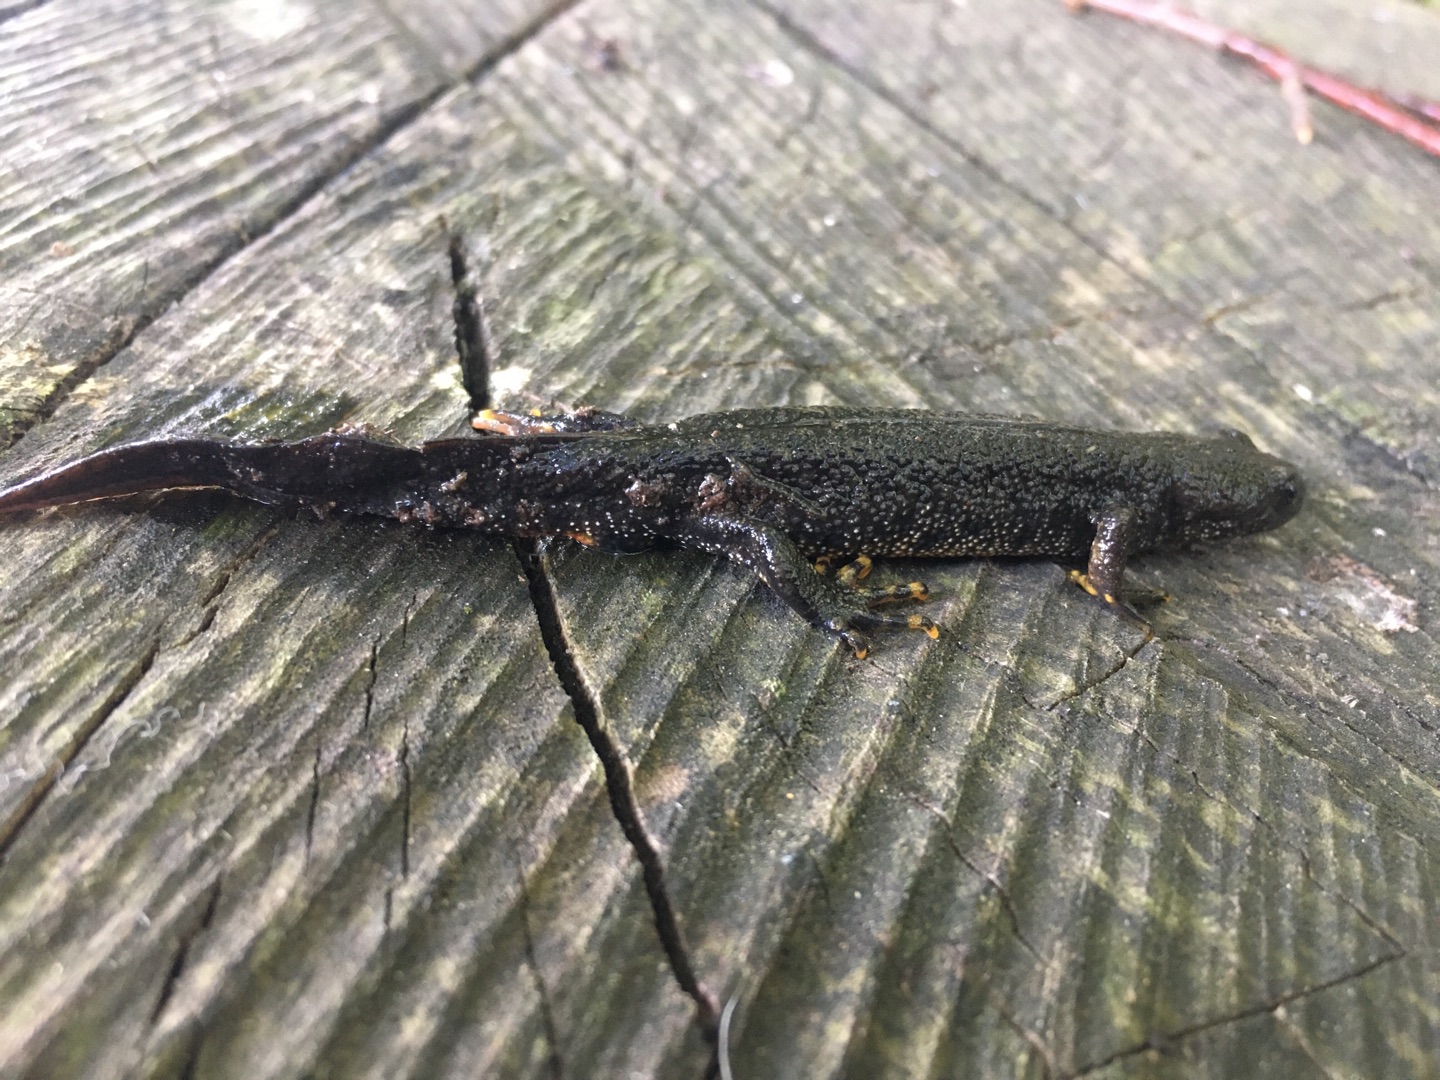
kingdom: Animalia
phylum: Chordata
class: Amphibia
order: Caudata
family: Salamandridae
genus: Triturus
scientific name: Triturus cristatus
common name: Stor vandsalamander
